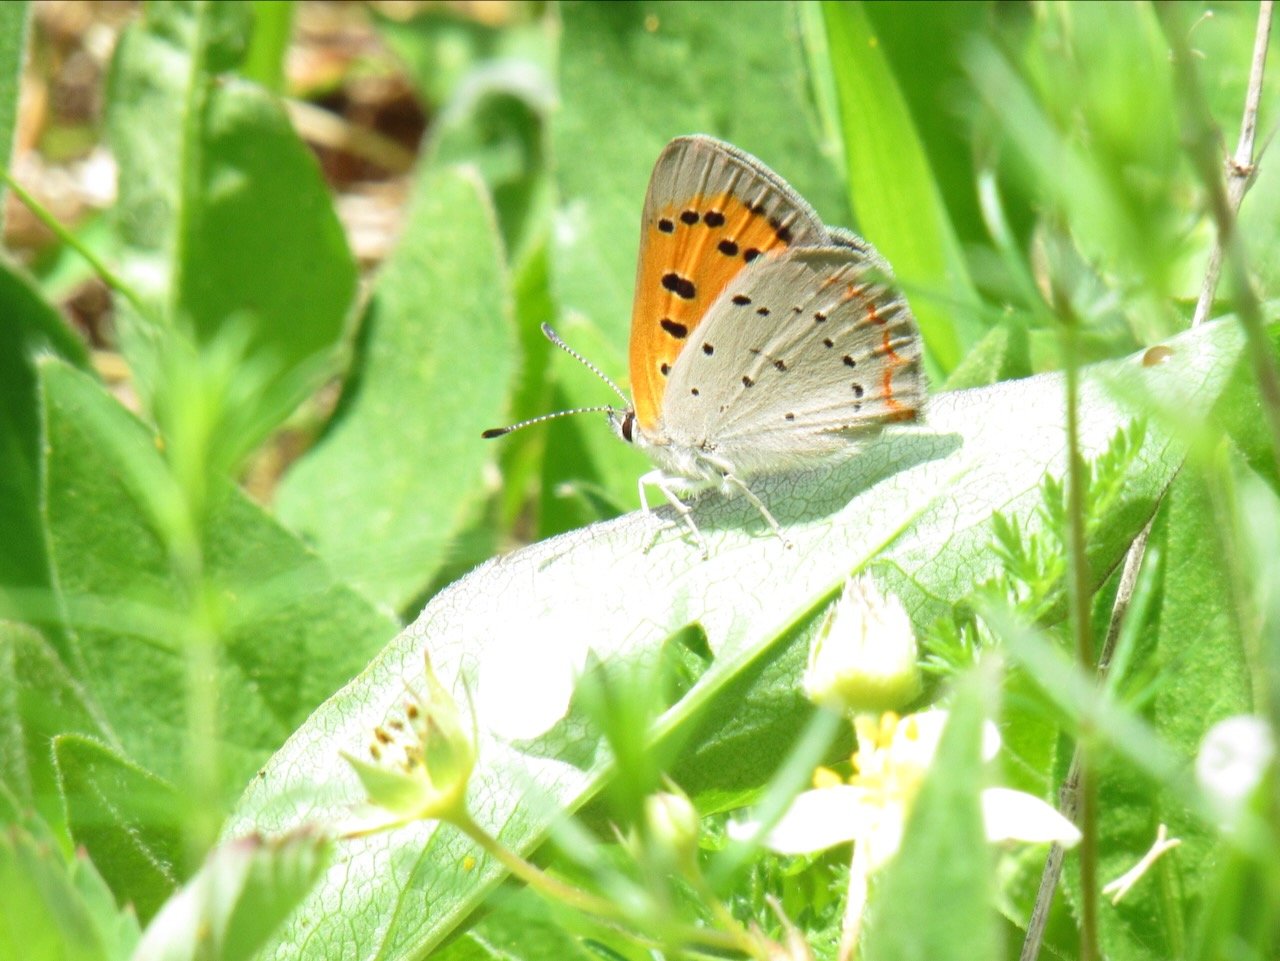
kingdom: Animalia
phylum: Arthropoda
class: Insecta
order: Lepidoptera
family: Lycaenidae
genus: Lycaena
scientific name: Lycaena phlaeas
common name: American Copper
